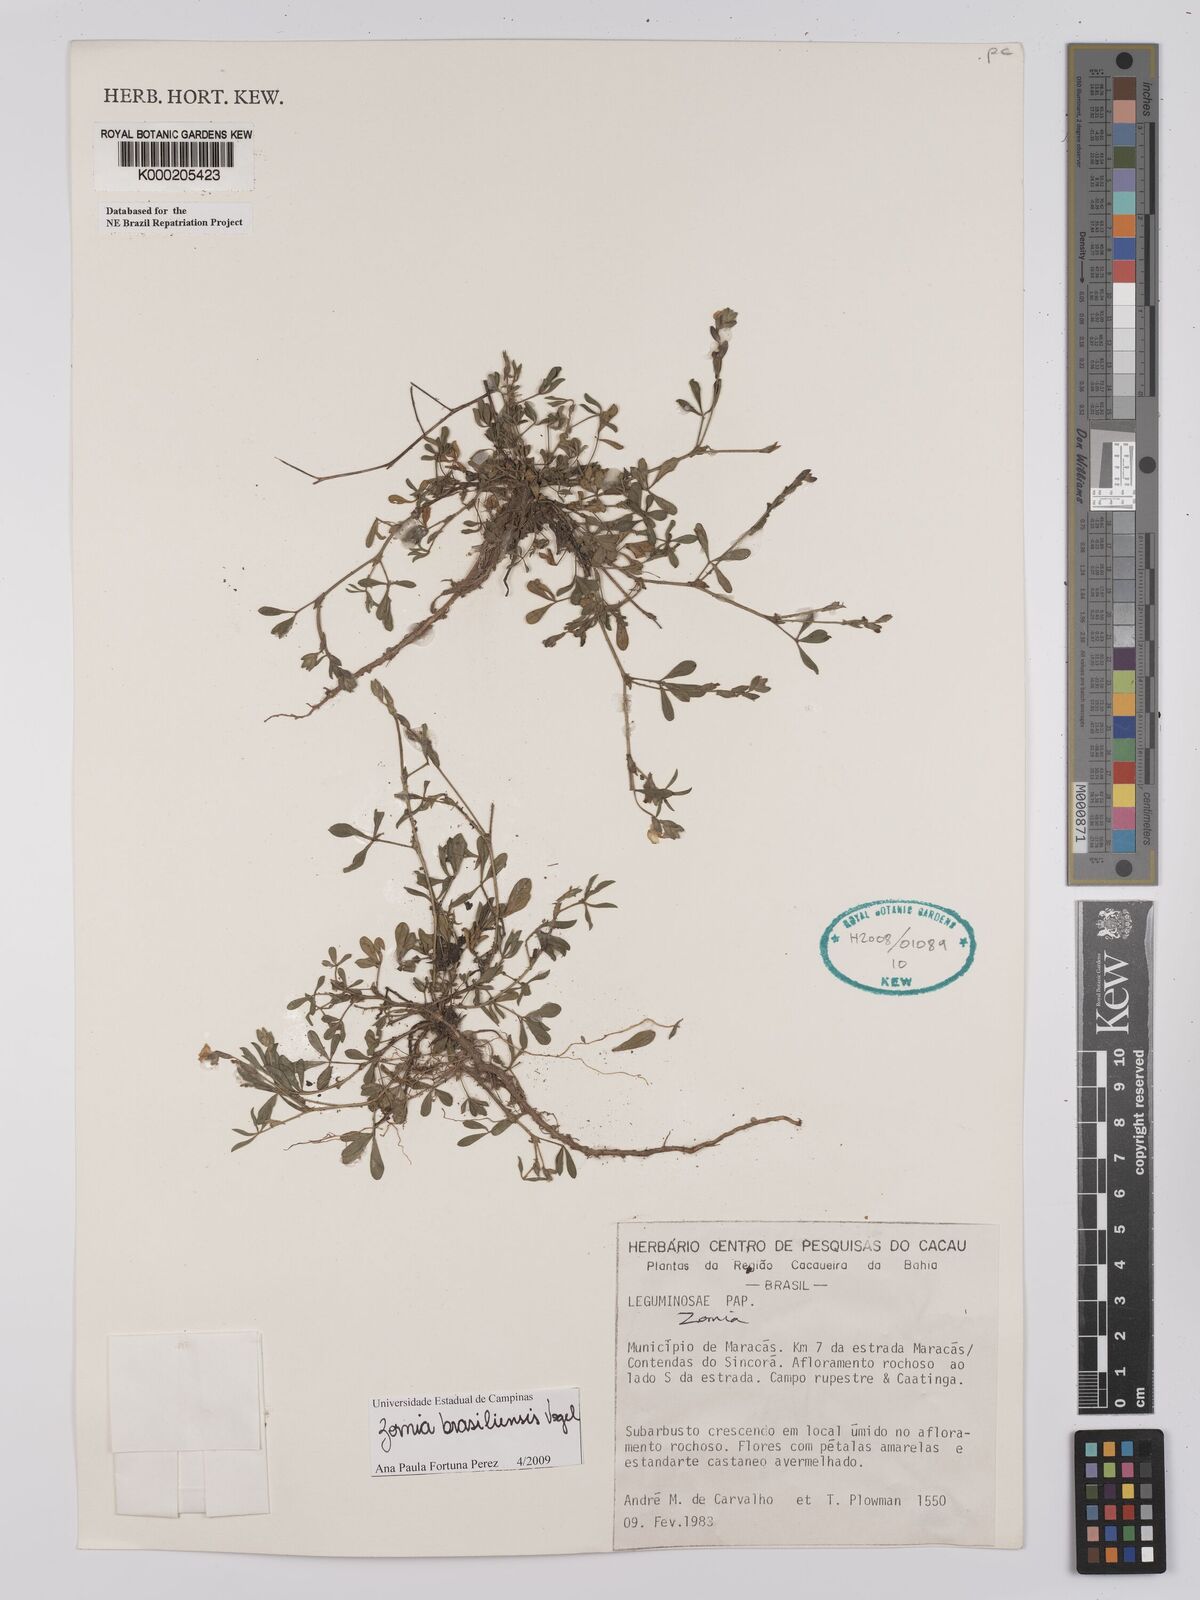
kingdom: Plantae
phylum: Tracheophyta
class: Magnoliopsida
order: Fabales
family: Fabaceae
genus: Zornia
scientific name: Zornia
